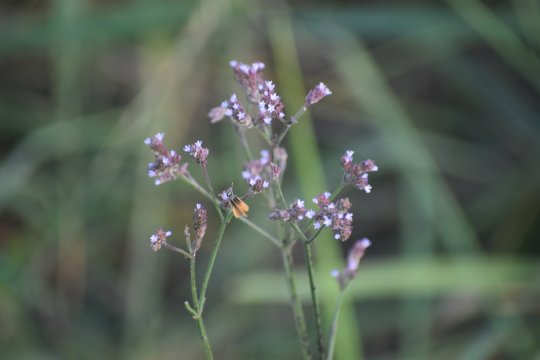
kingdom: Animalia
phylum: Arthropoda
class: Insecta
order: Lepidoptera
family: Hesperiidae
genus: Copaeodes
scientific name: Copaeodes minima
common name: Southern Skipperling
